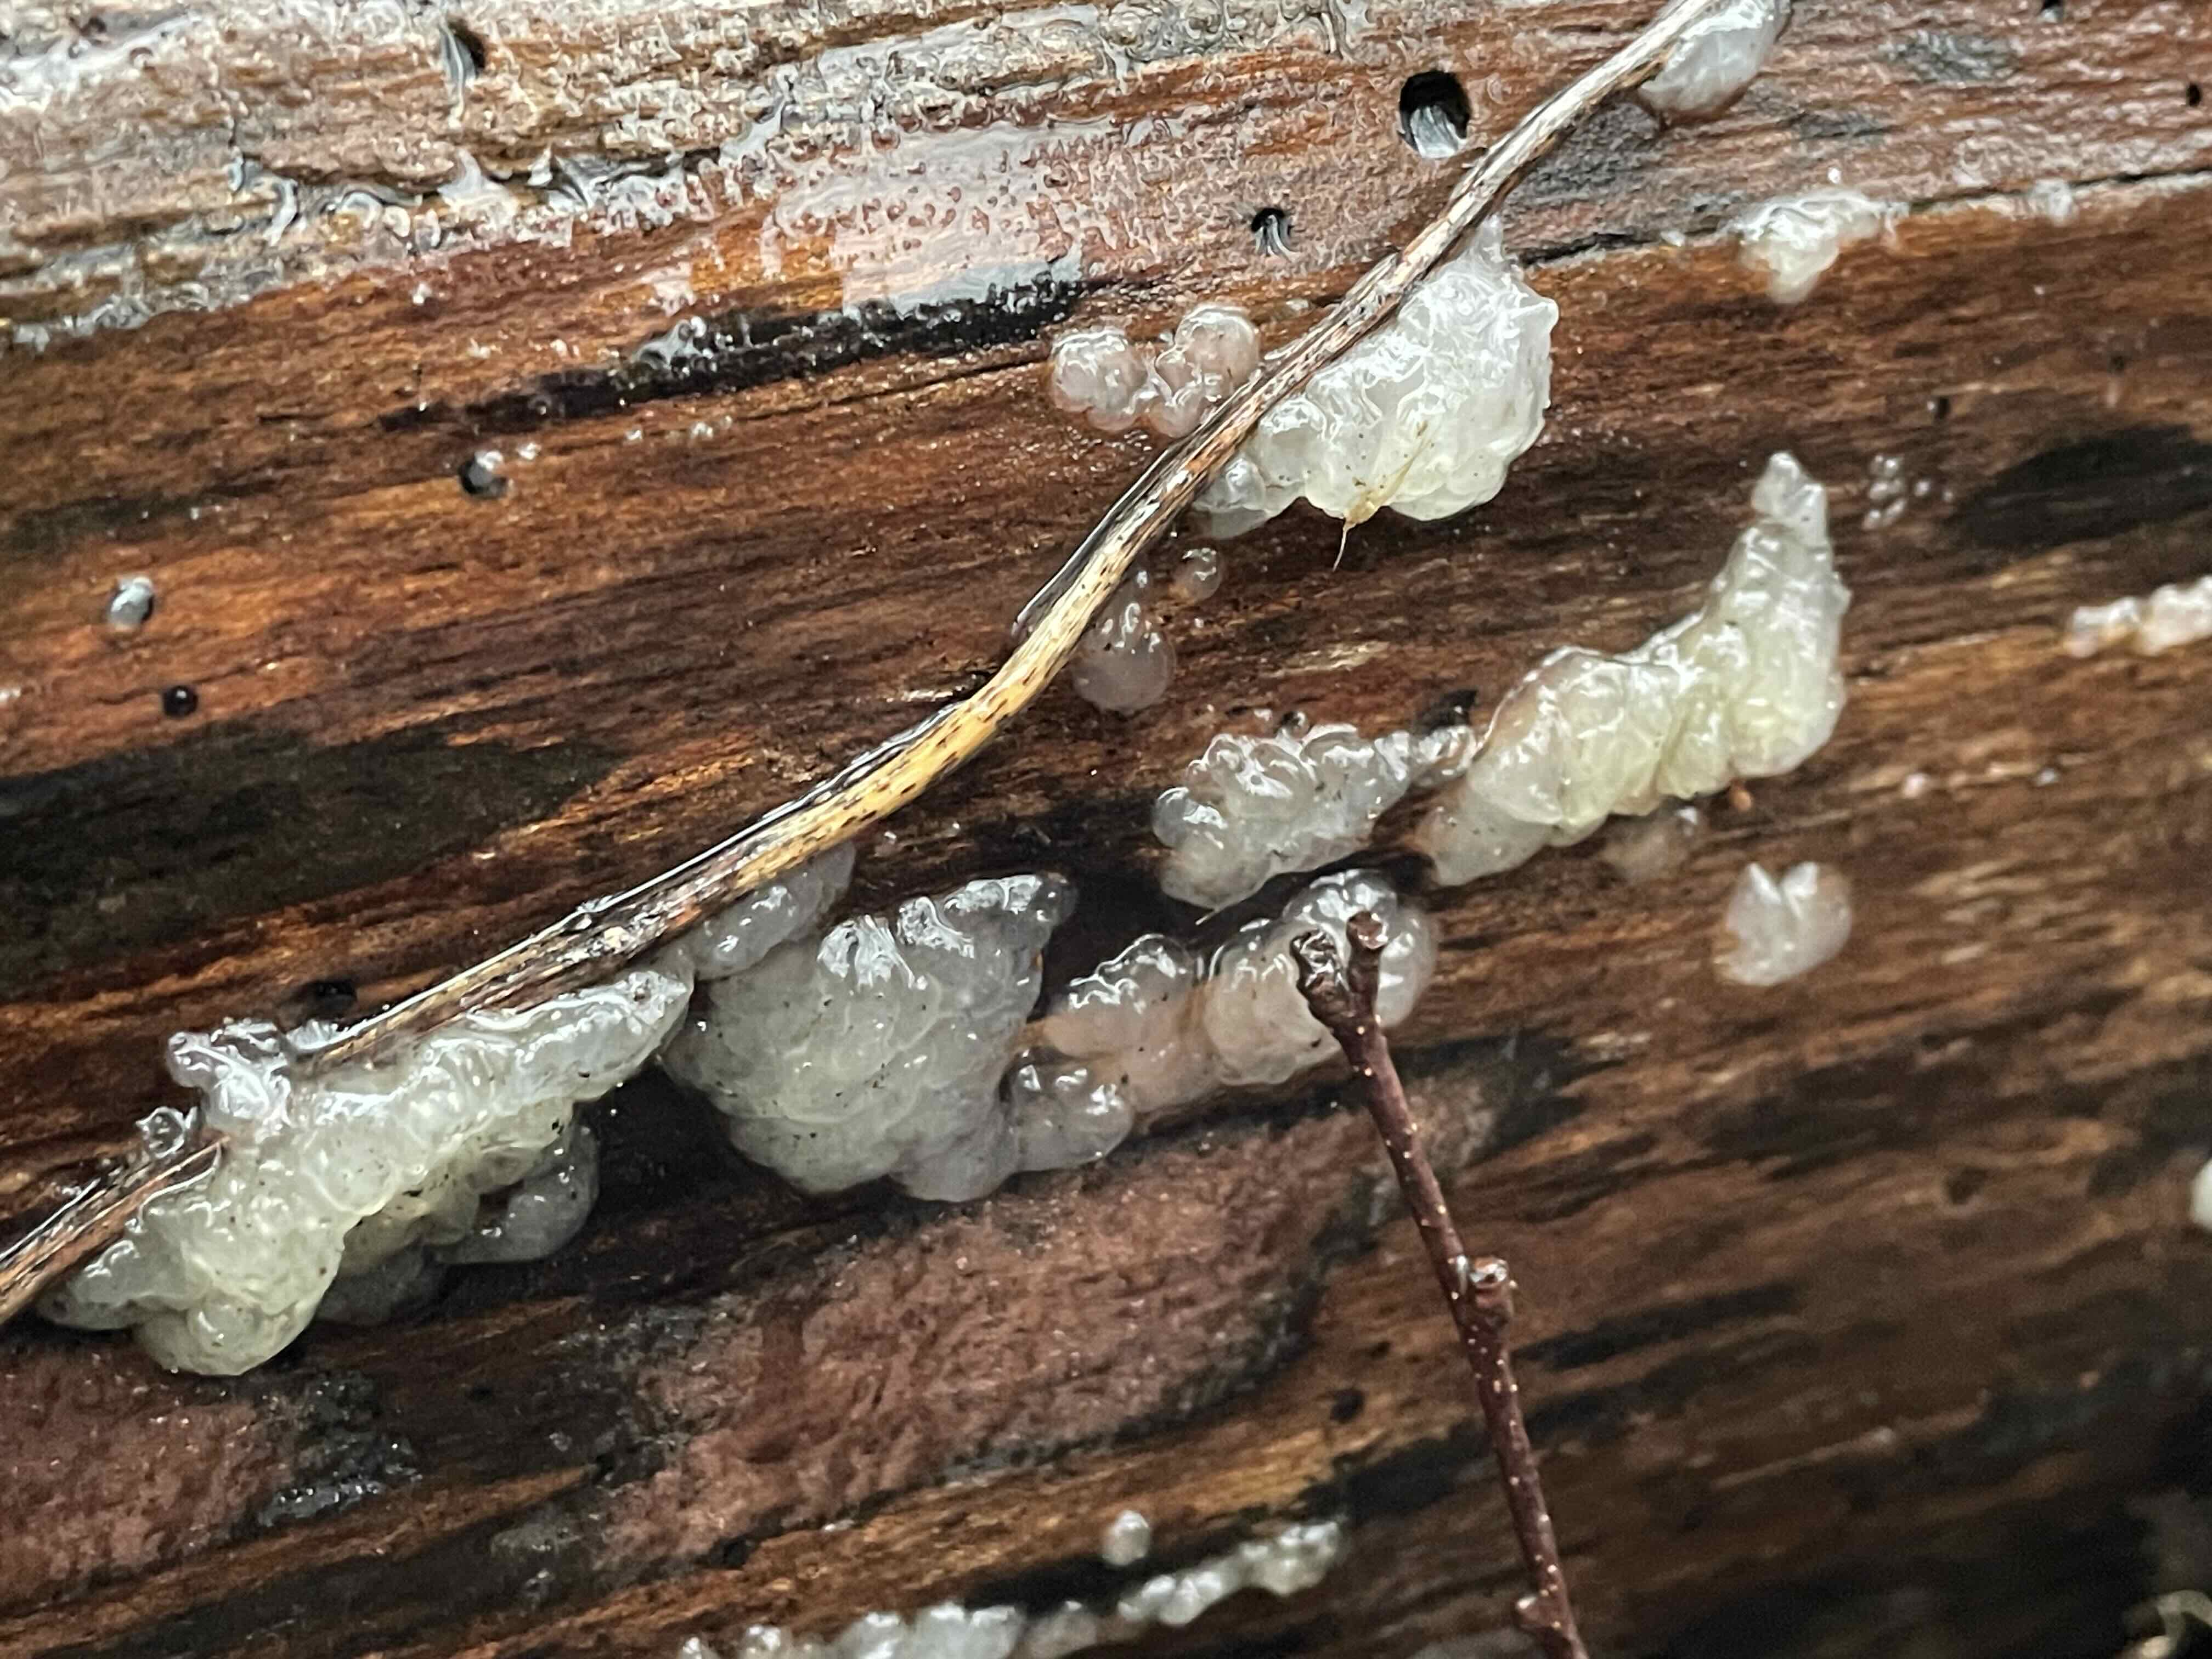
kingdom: Fungi
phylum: Basidiomycota
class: Agaricomycetes
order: Auriculariales
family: Hyaloriaceae
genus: Myxarium
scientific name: Myxarium nucleatum
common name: klar bævretop
